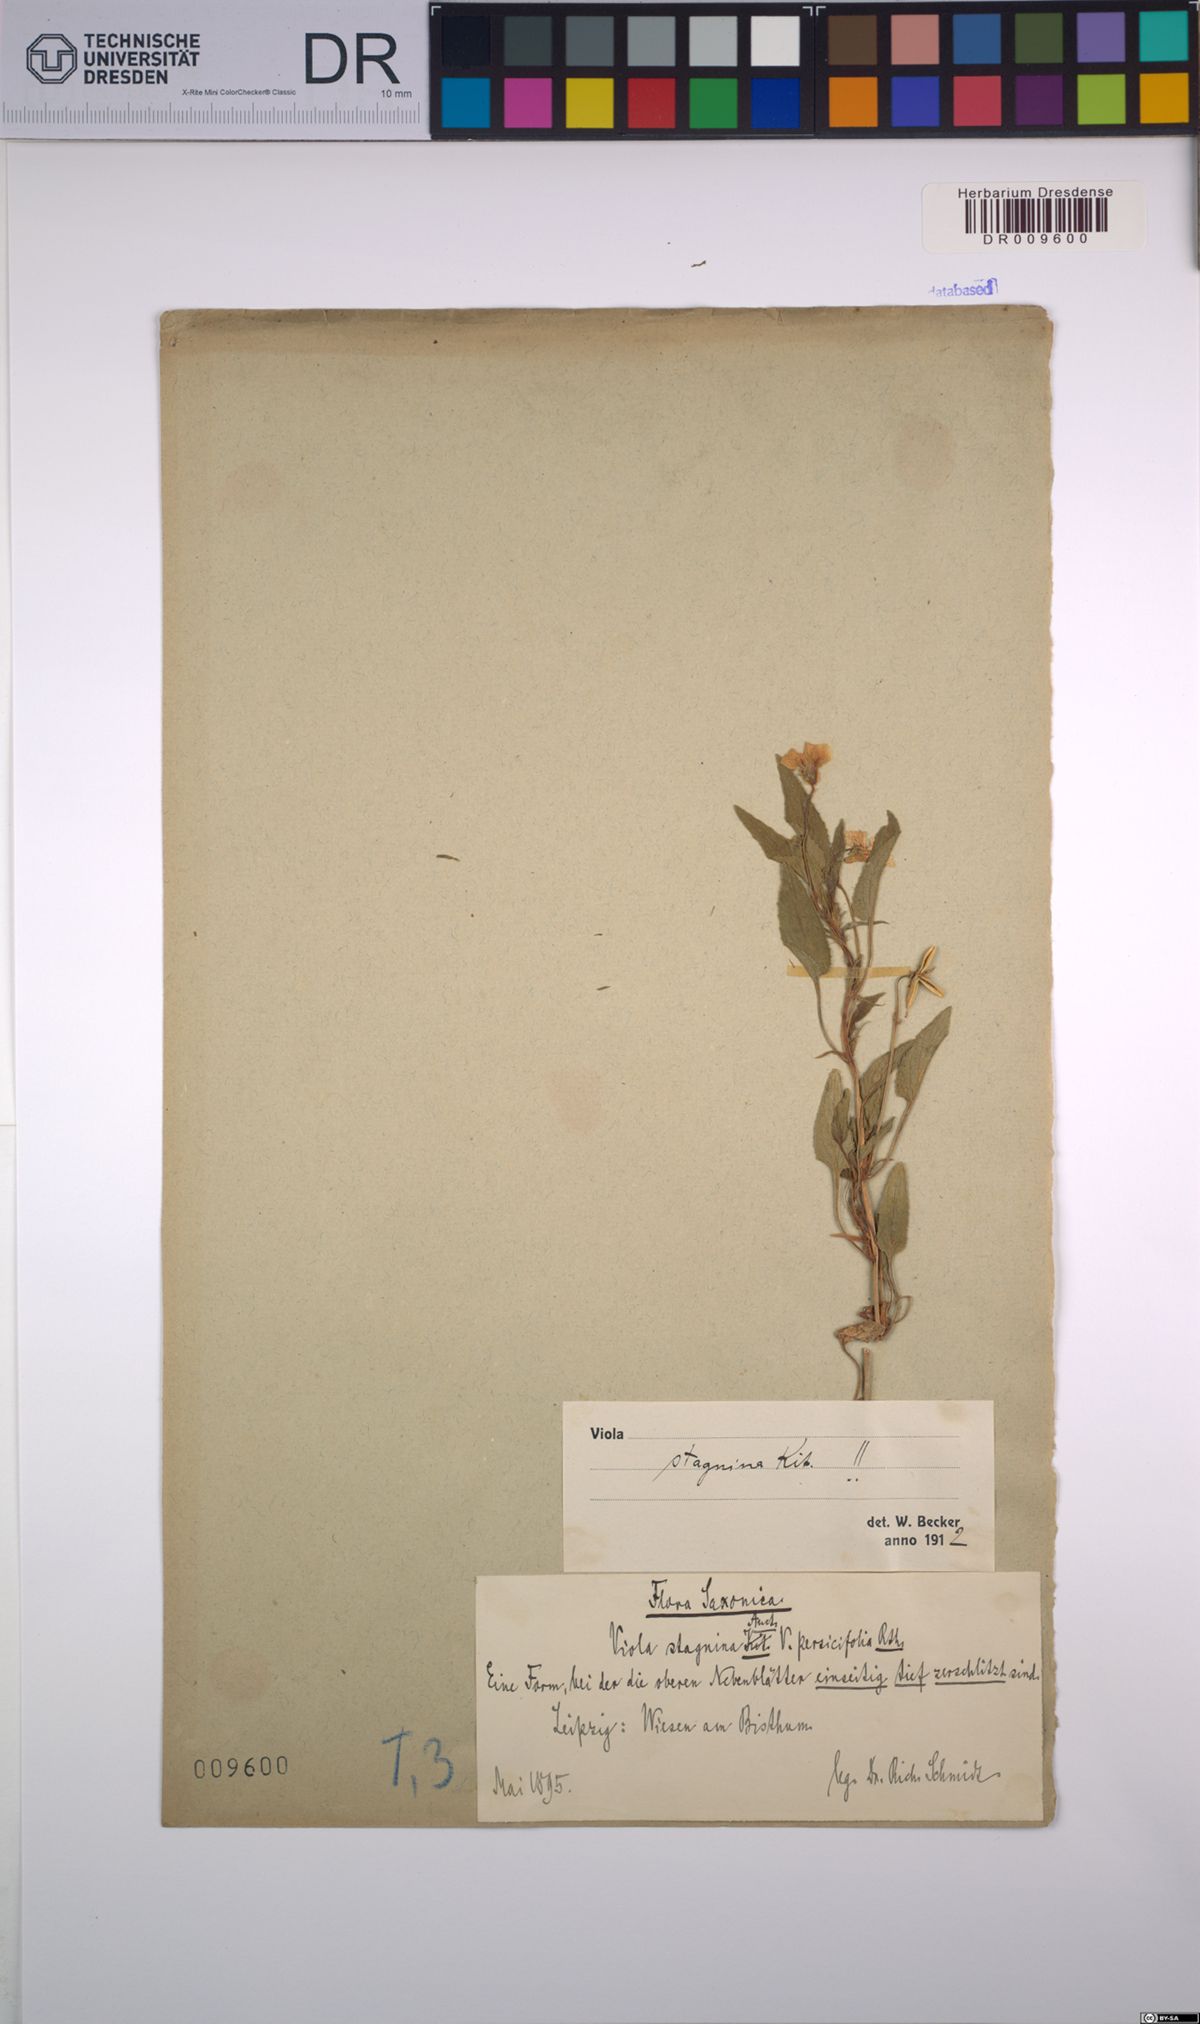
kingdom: Plantae
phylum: Tracheophyta
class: Magnoliopsida
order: Malpighiales
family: Violaceae
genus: Viola
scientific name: Viola stagnina
